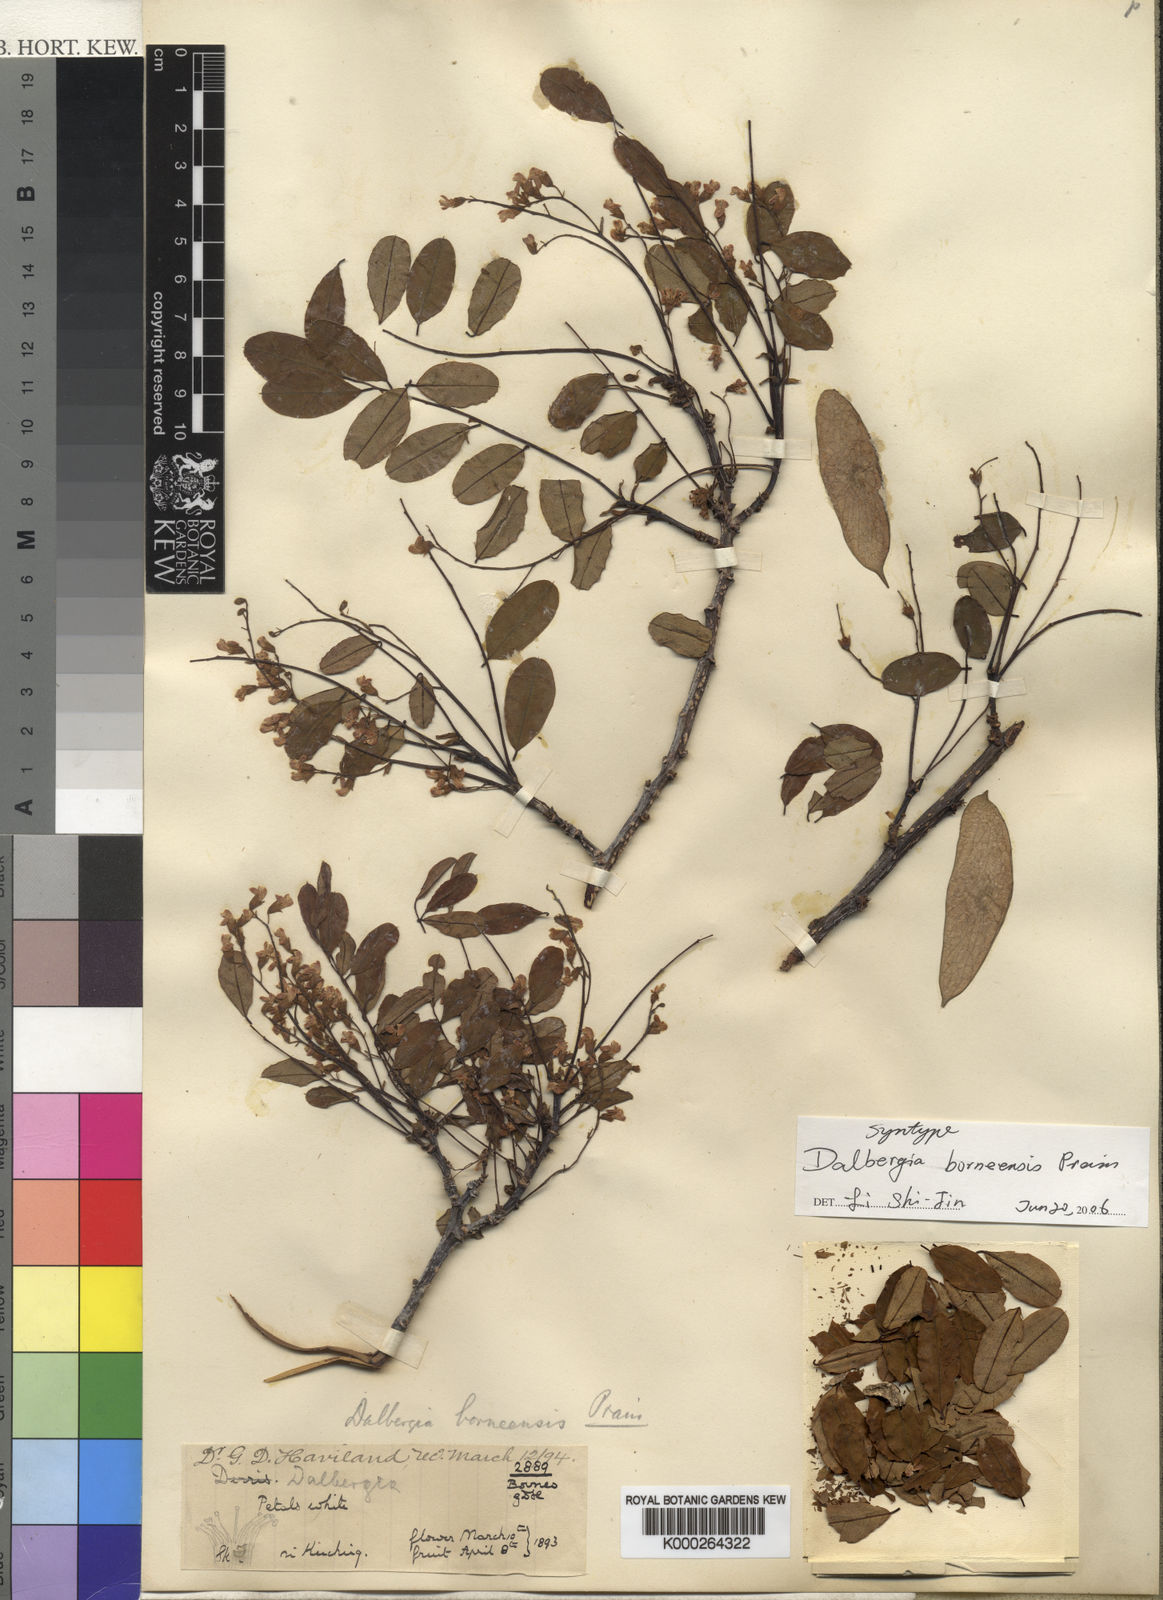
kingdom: Plantae
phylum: Tracheophyta
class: Magnoliopsida
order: Fabales
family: Fabaceae
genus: Dalbergia
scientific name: Dalbergia borneensis
